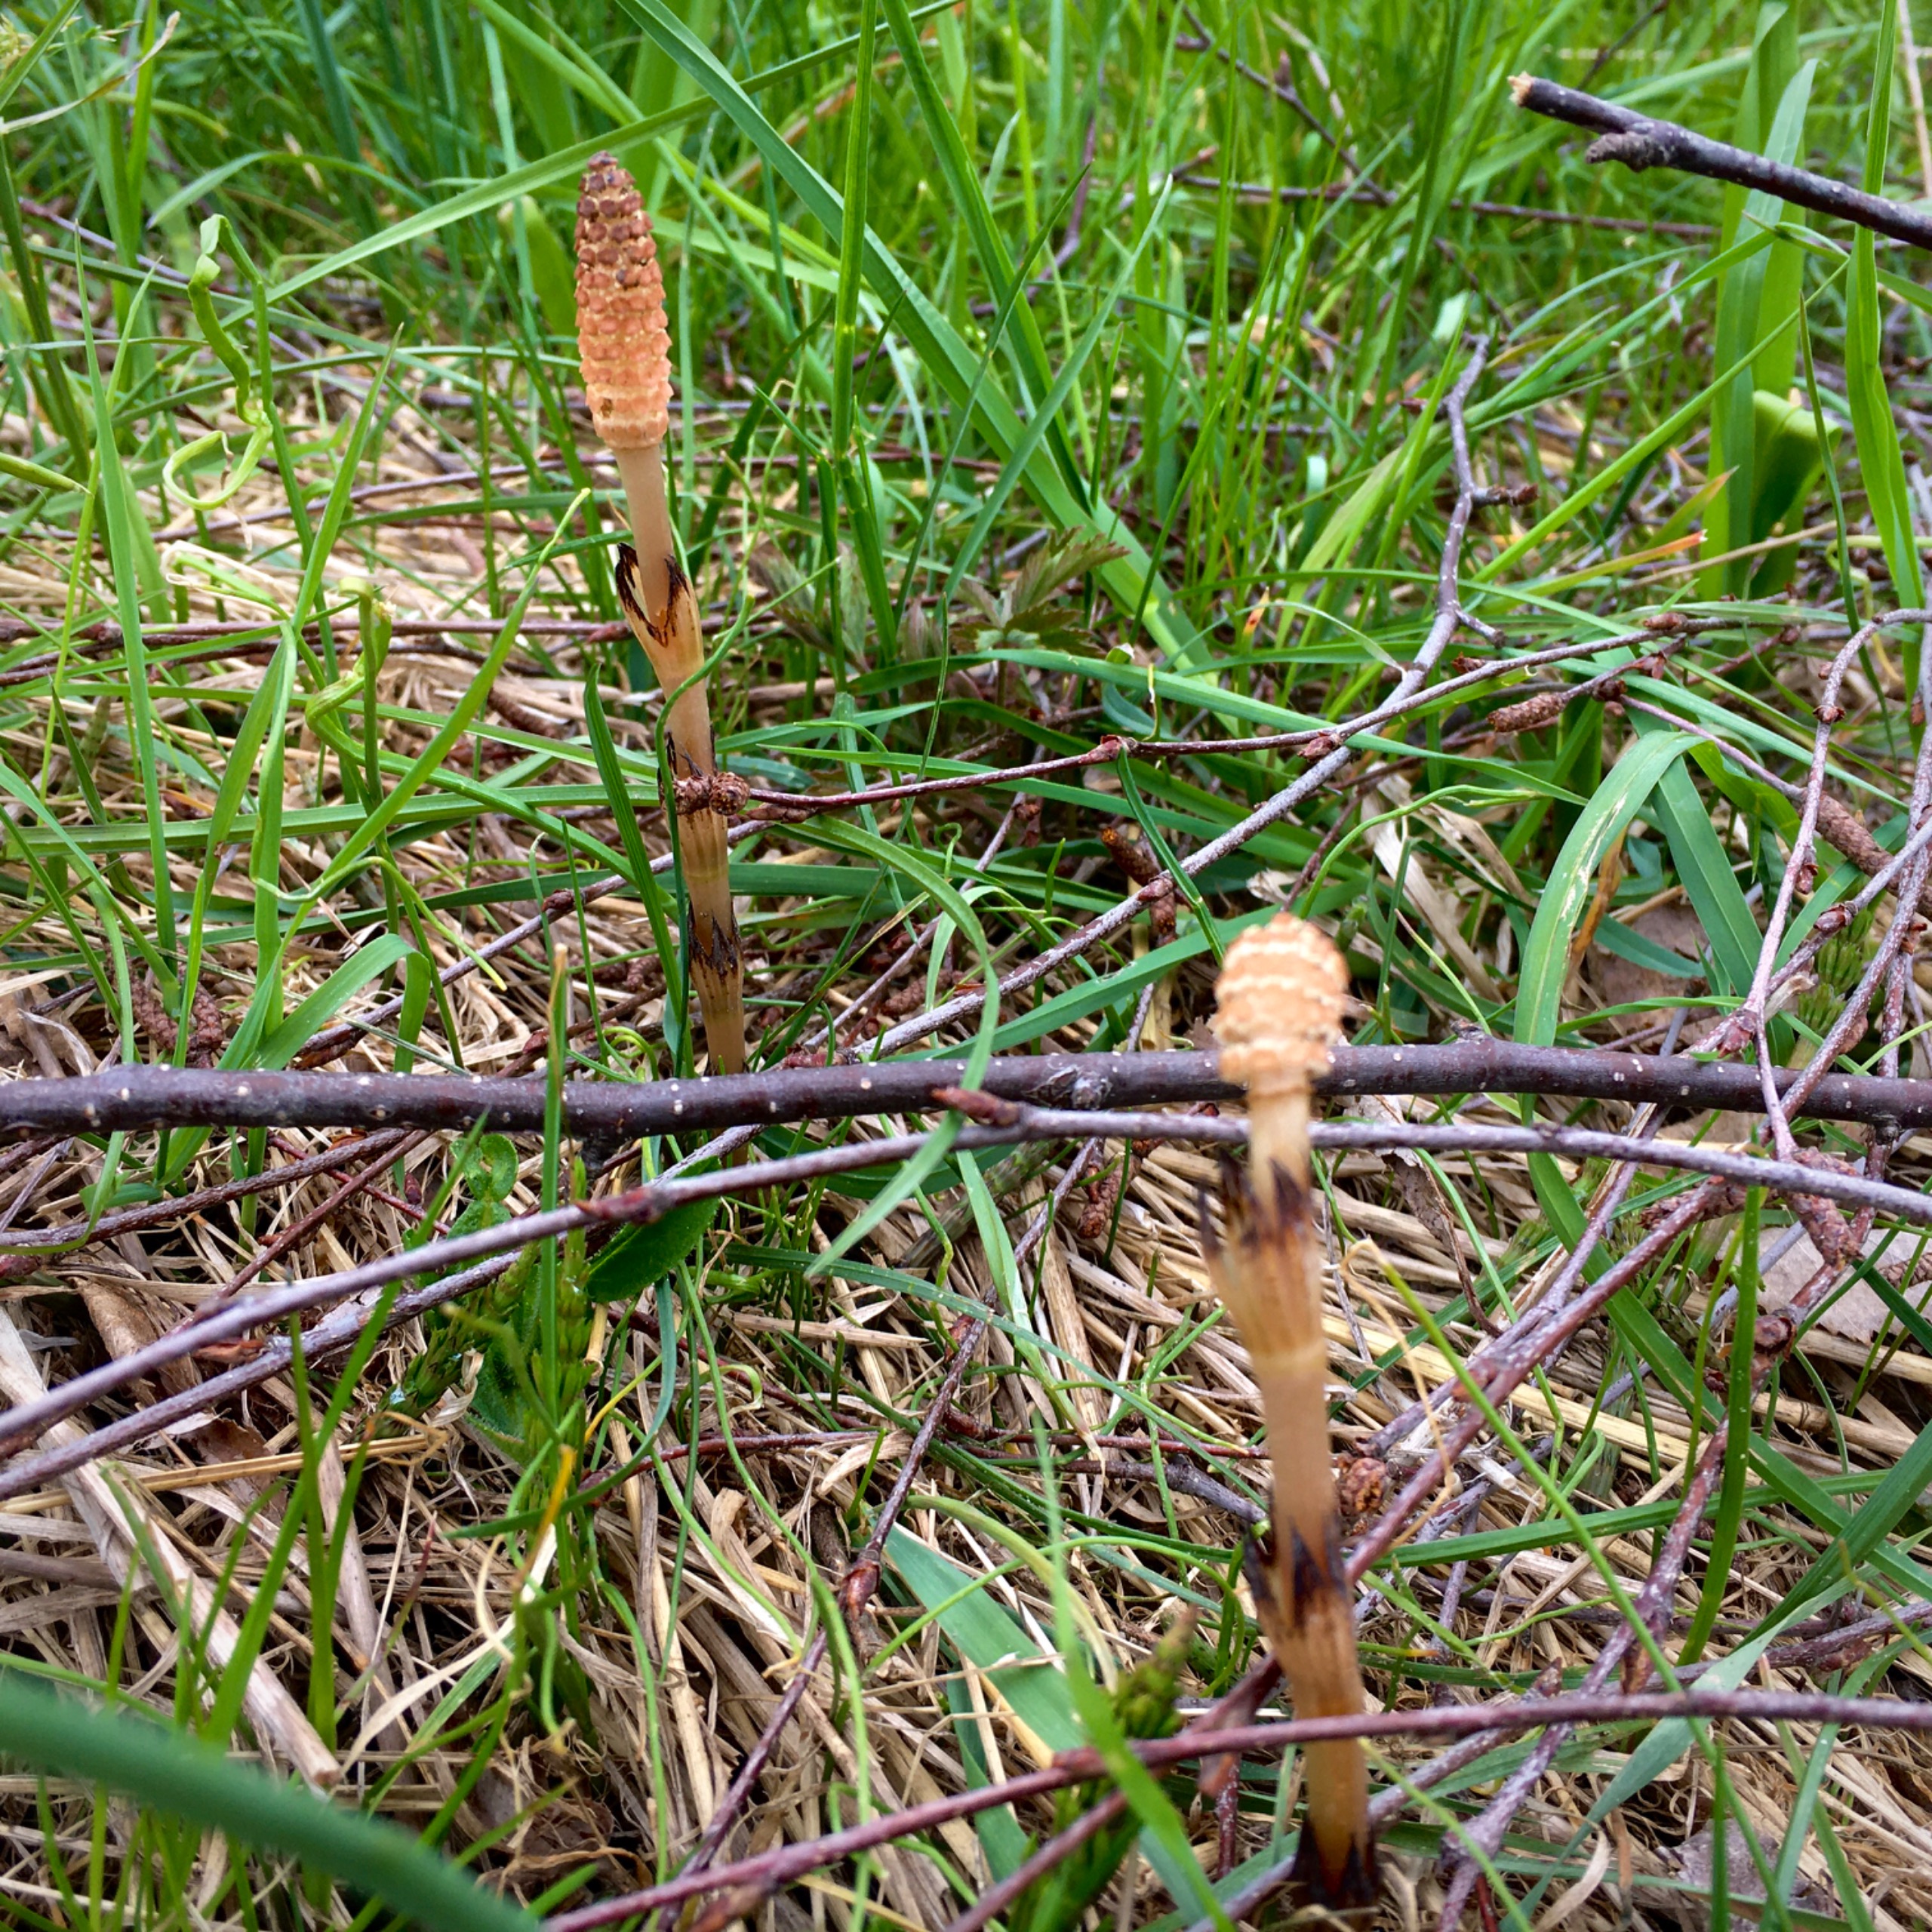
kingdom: Plantae
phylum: Tracheophyta
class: Polypodiopsida
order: Equisetales
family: Equisetaceae
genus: Equisetum
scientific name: Equisetum arvense
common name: Ager-padderok
